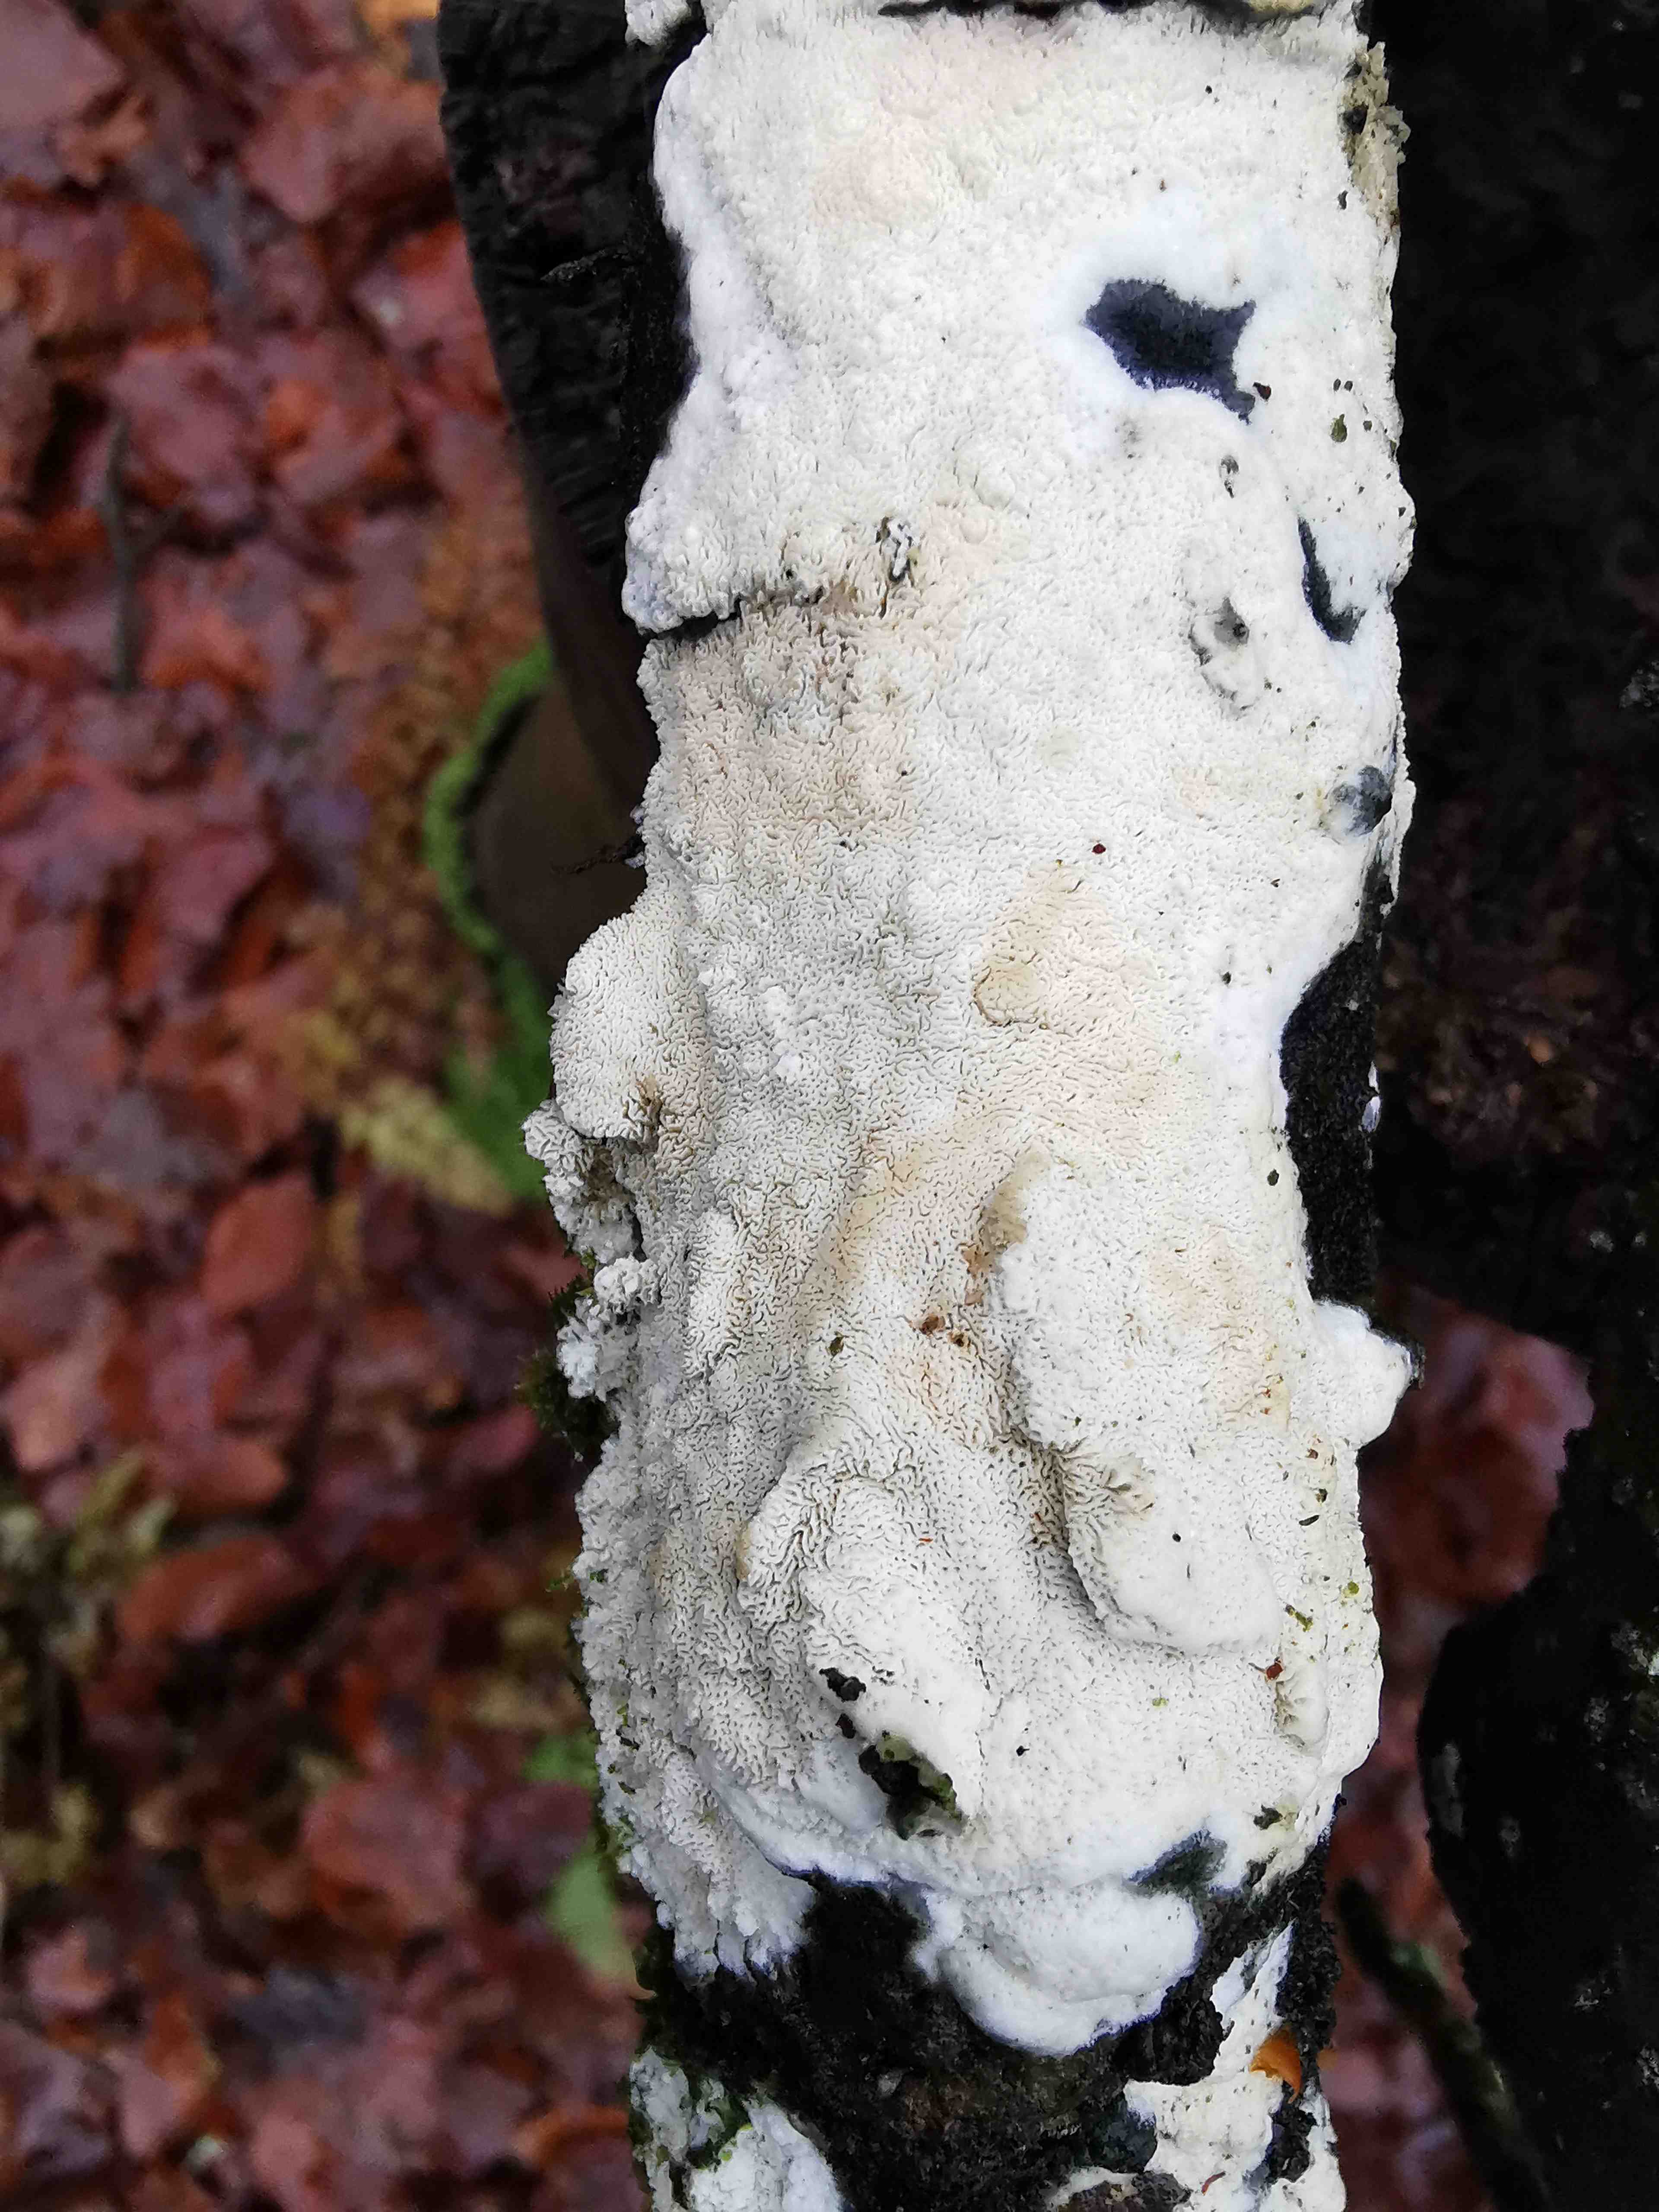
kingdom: Fungi
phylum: Basidiomycota
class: Agaricomycetes
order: Hymenochaetales
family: Schizoporaceae
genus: Xylodon
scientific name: Xylodon subtropicus
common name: labyrint-tandsvamp
